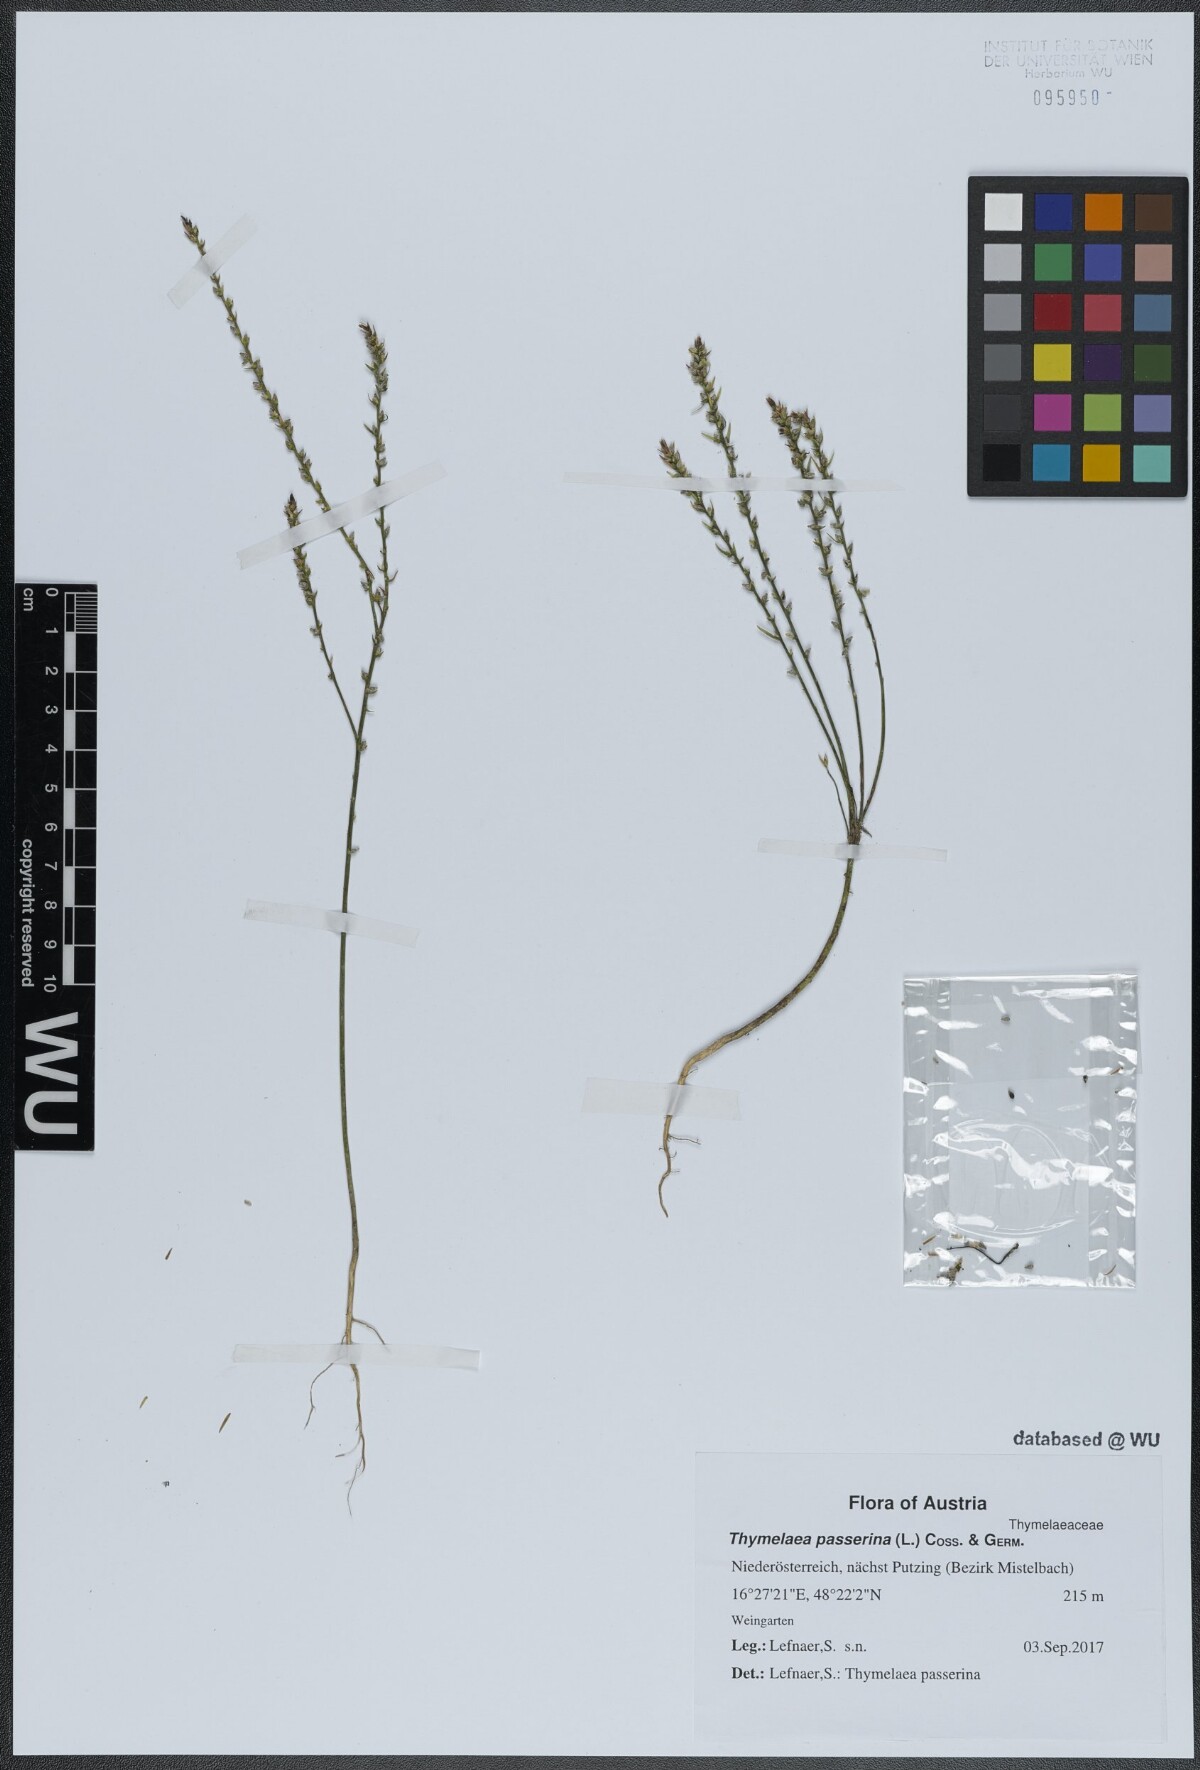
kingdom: Plantae
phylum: Tracheophyta
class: Magnoliopsida
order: Malvales
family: Thymelaeaceae
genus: Thymelaea
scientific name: Thymelaea passerina
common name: Annual thymelaea
